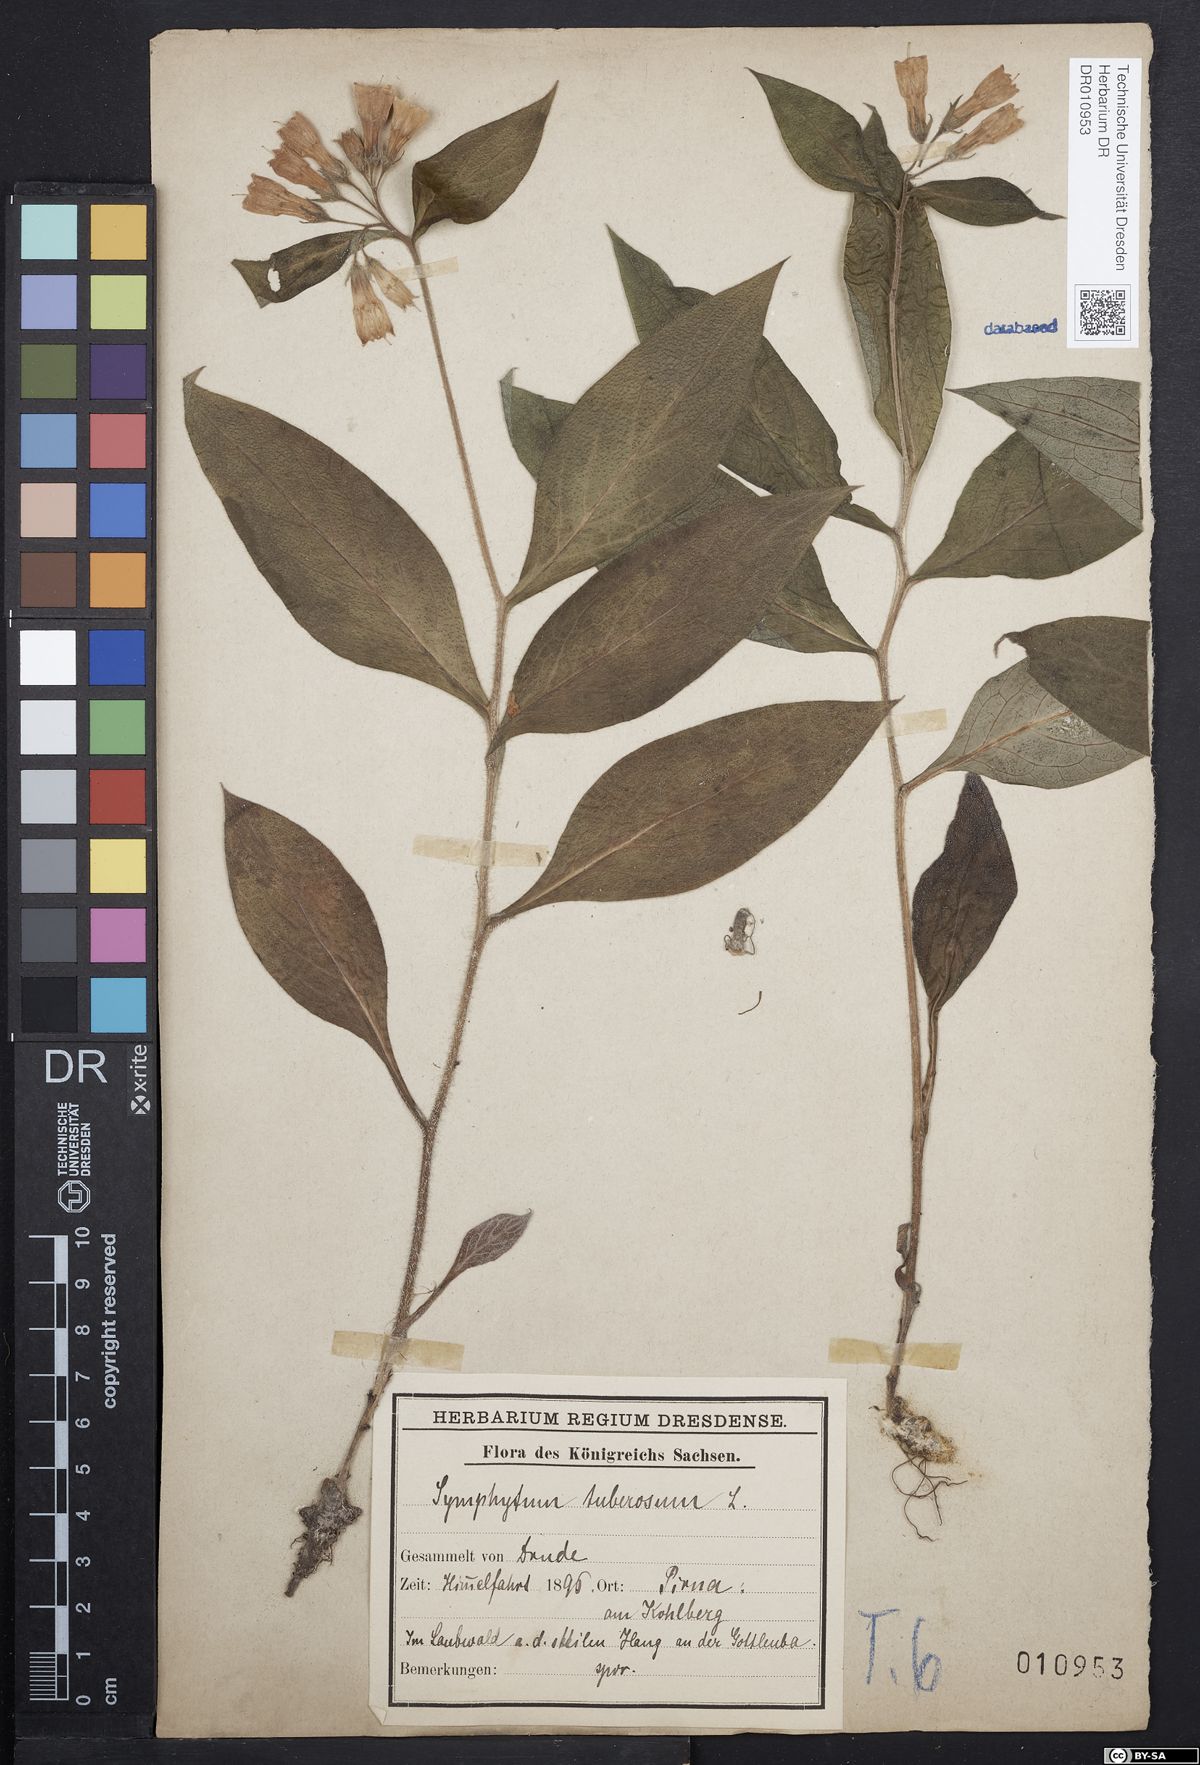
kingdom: Plantae
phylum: Tracheophyta
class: Magnoliopsida
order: Boraginales
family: Boraginaceae
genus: Symphytum
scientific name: Symphytum tuberosum
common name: Tuberous comfrey
